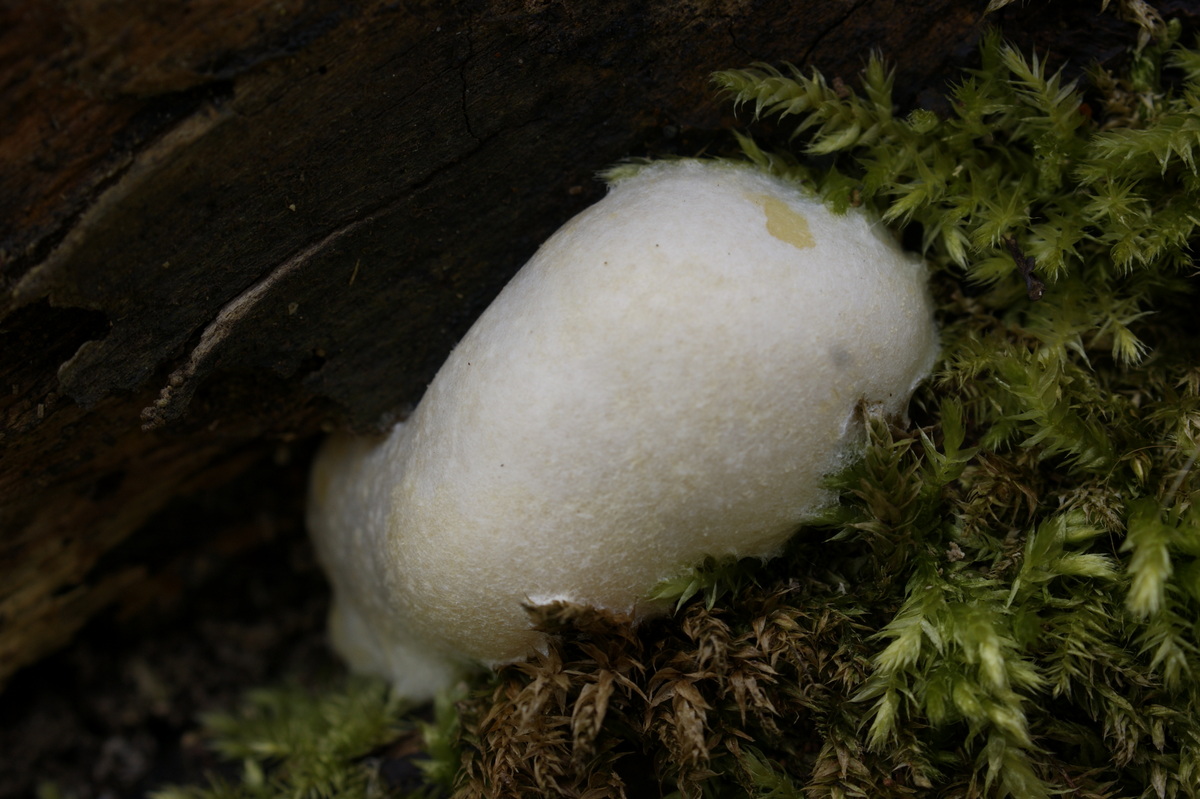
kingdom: Protozoa
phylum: Mycetozoa
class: Myxomycetes
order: Cribrariales
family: Tubiferaceae
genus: Reticularia
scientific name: Reticularia lycoperdon
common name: skinnende støvpude
